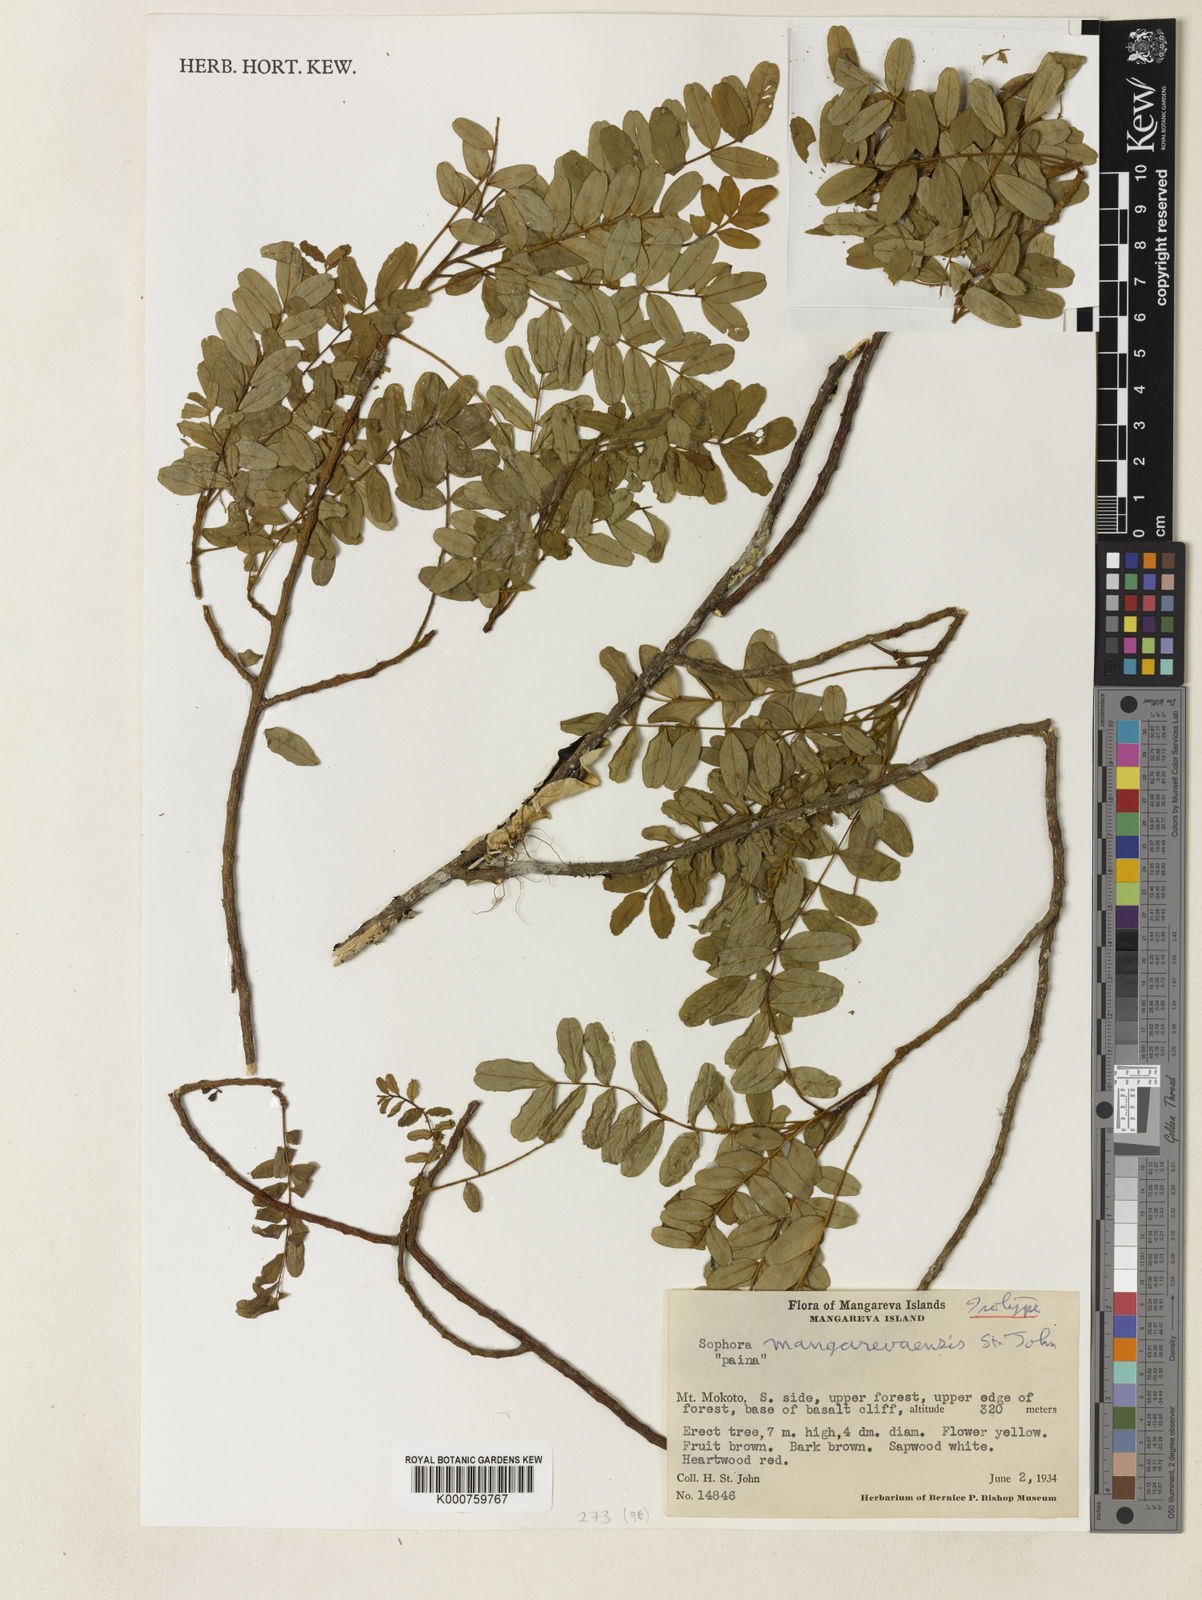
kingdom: Plantae
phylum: Tracheophyta
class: Magnoliopsida
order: Fabales
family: Fabaceae
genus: Sophora
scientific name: Sophora mangarevaensis
